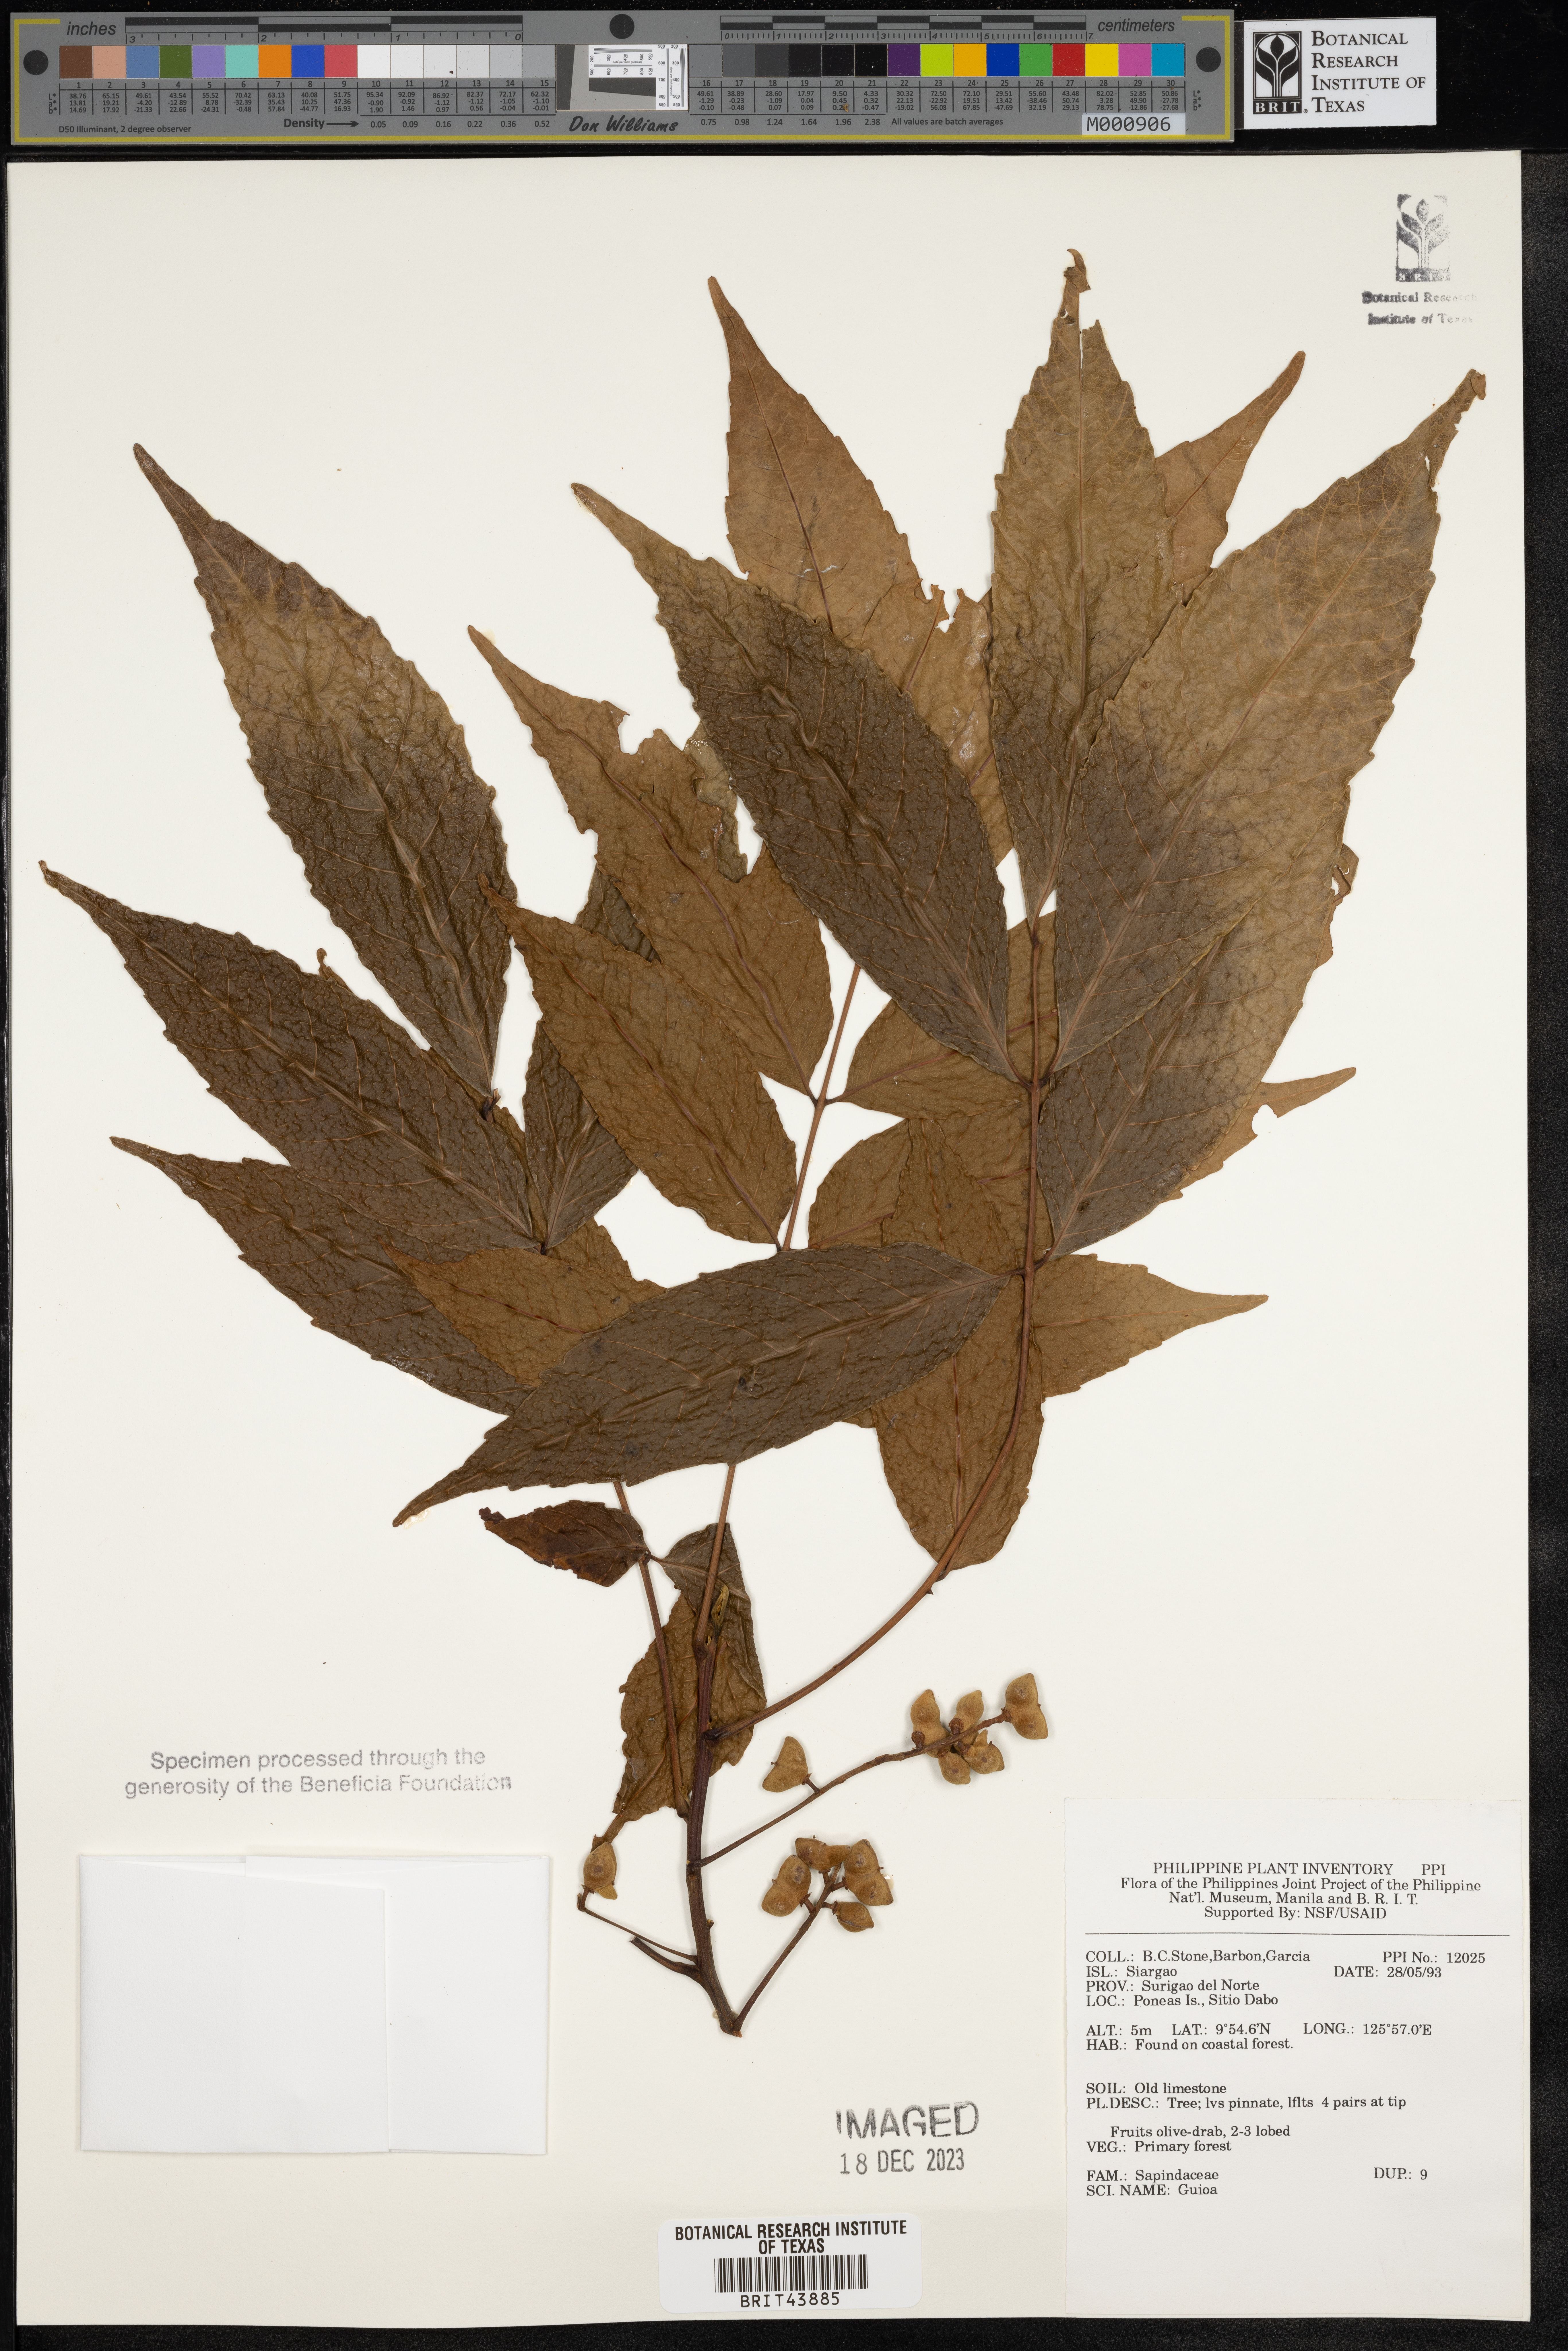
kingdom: Plantae
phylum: Tracheophyta
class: Magnoliopsida
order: Sapindales
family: Sapindaceae
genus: Guioa
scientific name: Guioa
